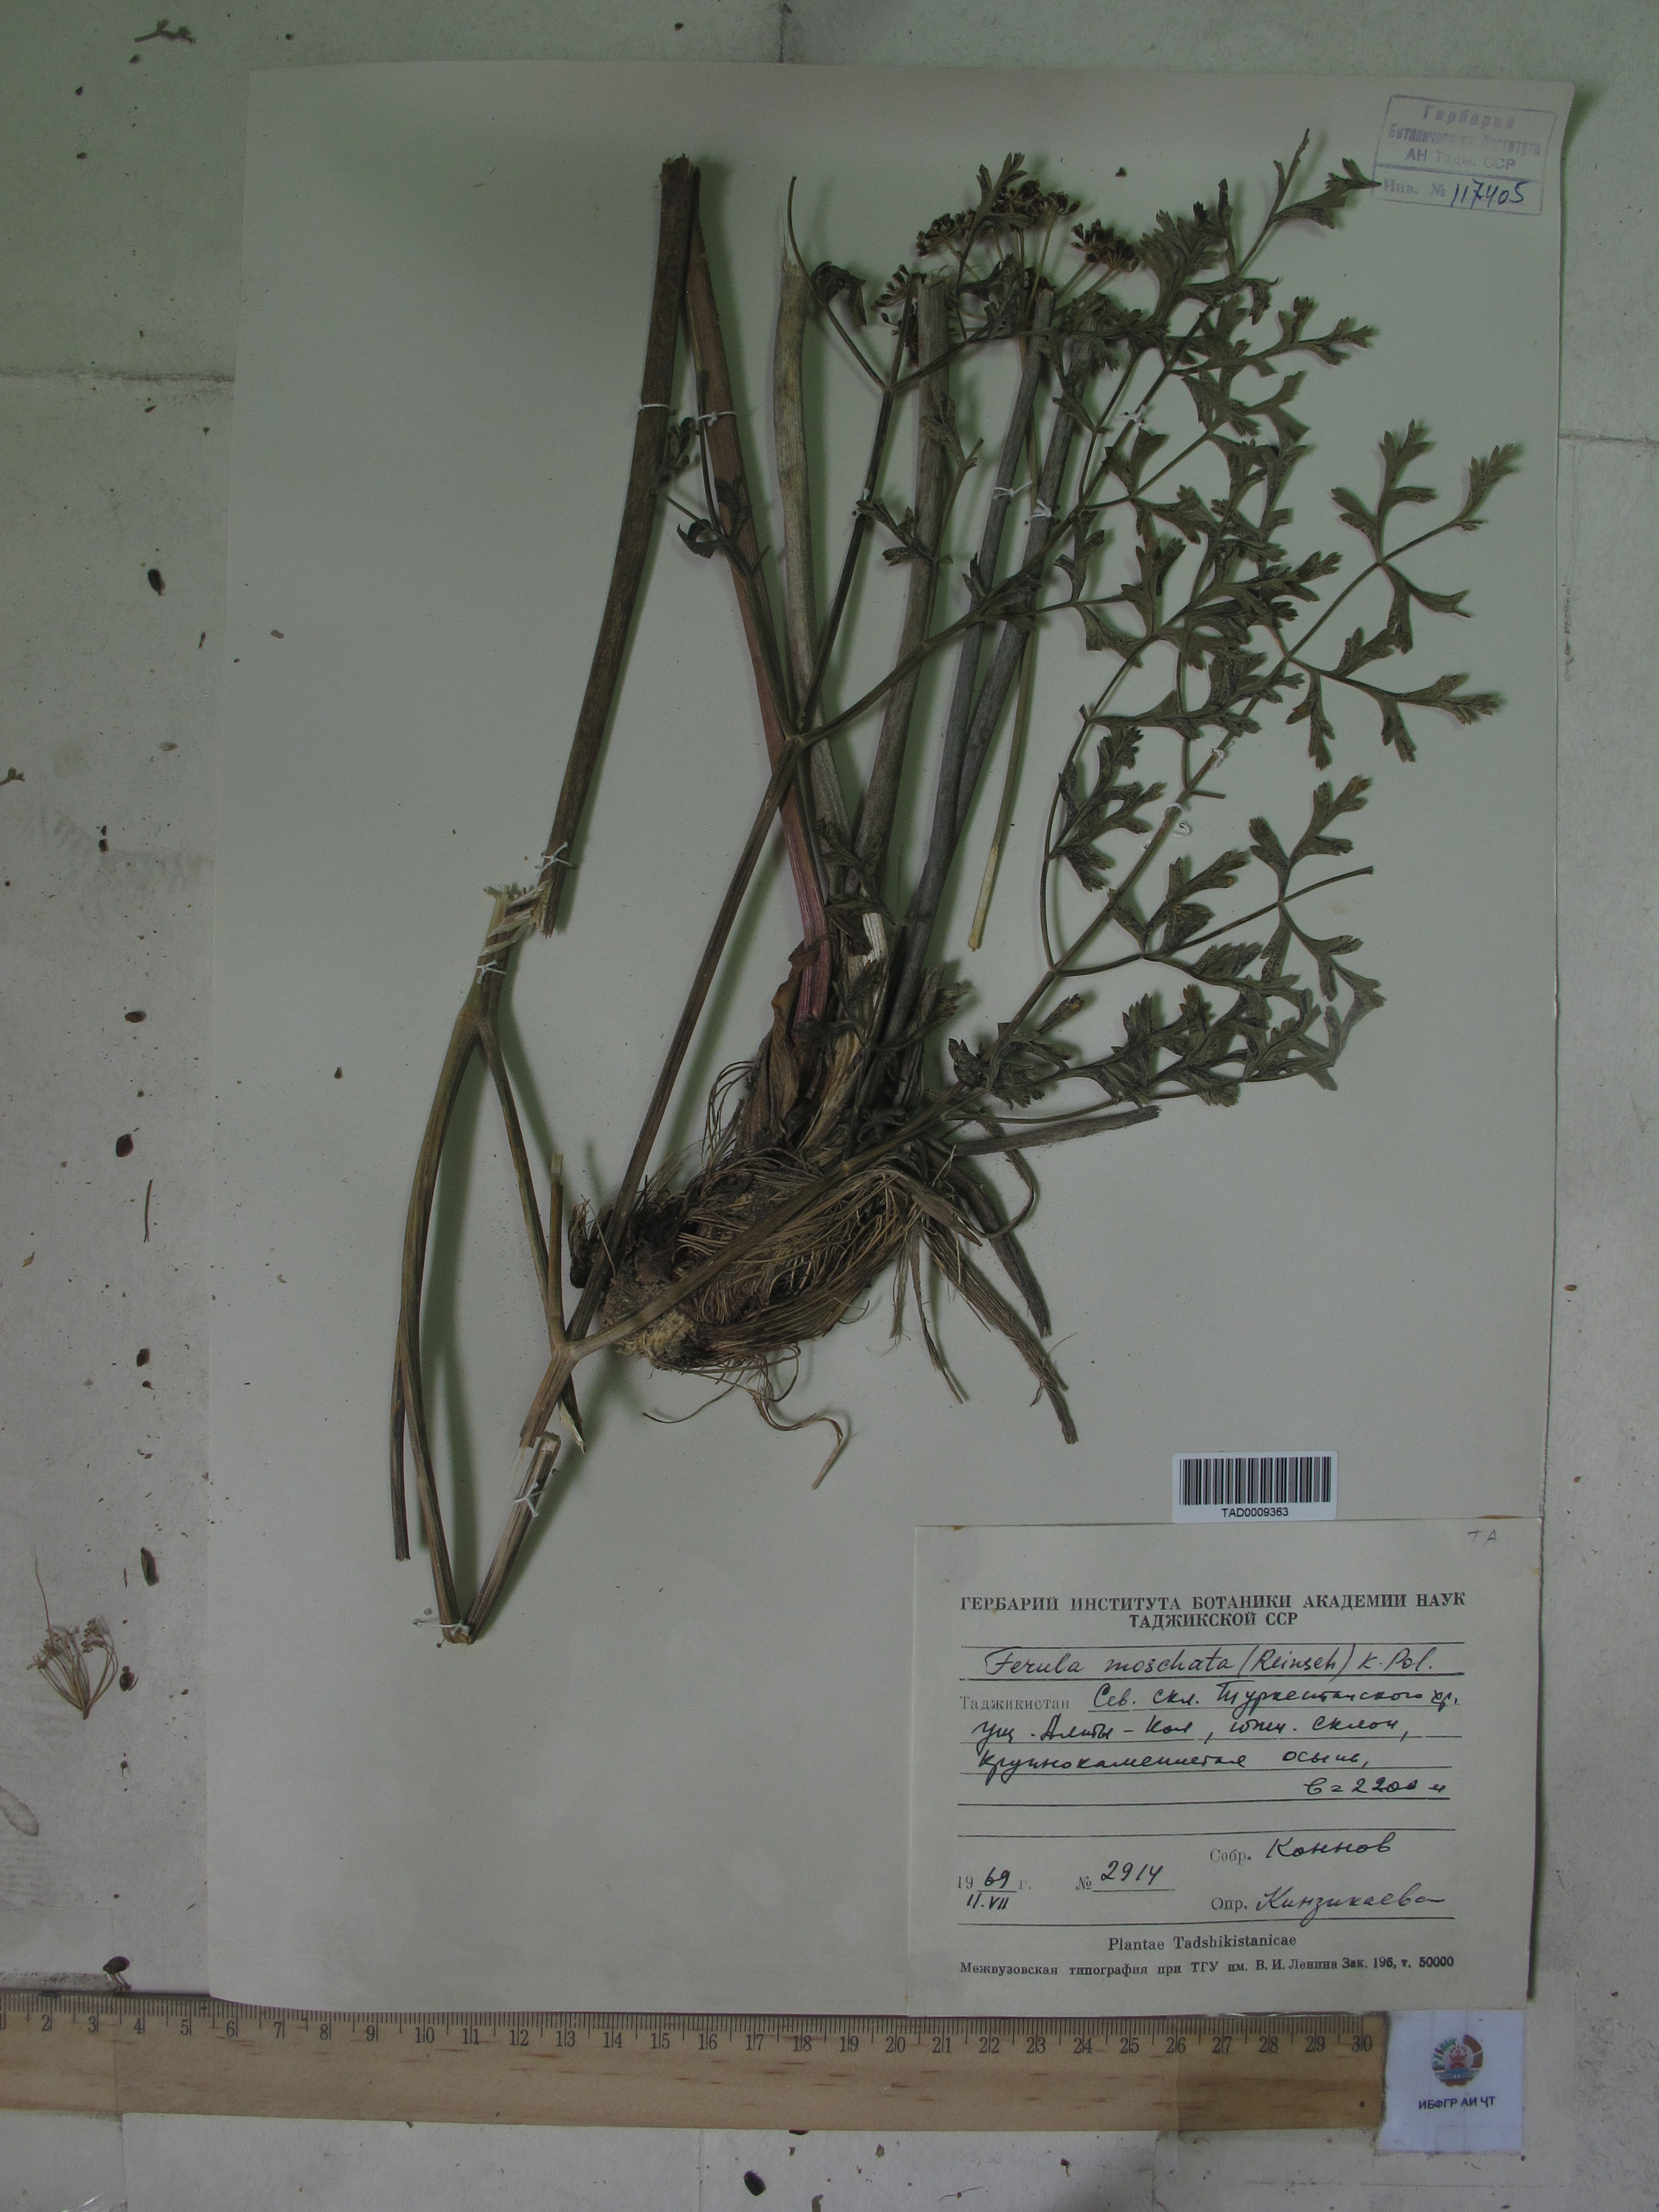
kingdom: Plantae
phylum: Tracheophyta
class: Magnoliopsida
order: Apiales
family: Apiaceae
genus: Ferula
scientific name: Ferula moschata
